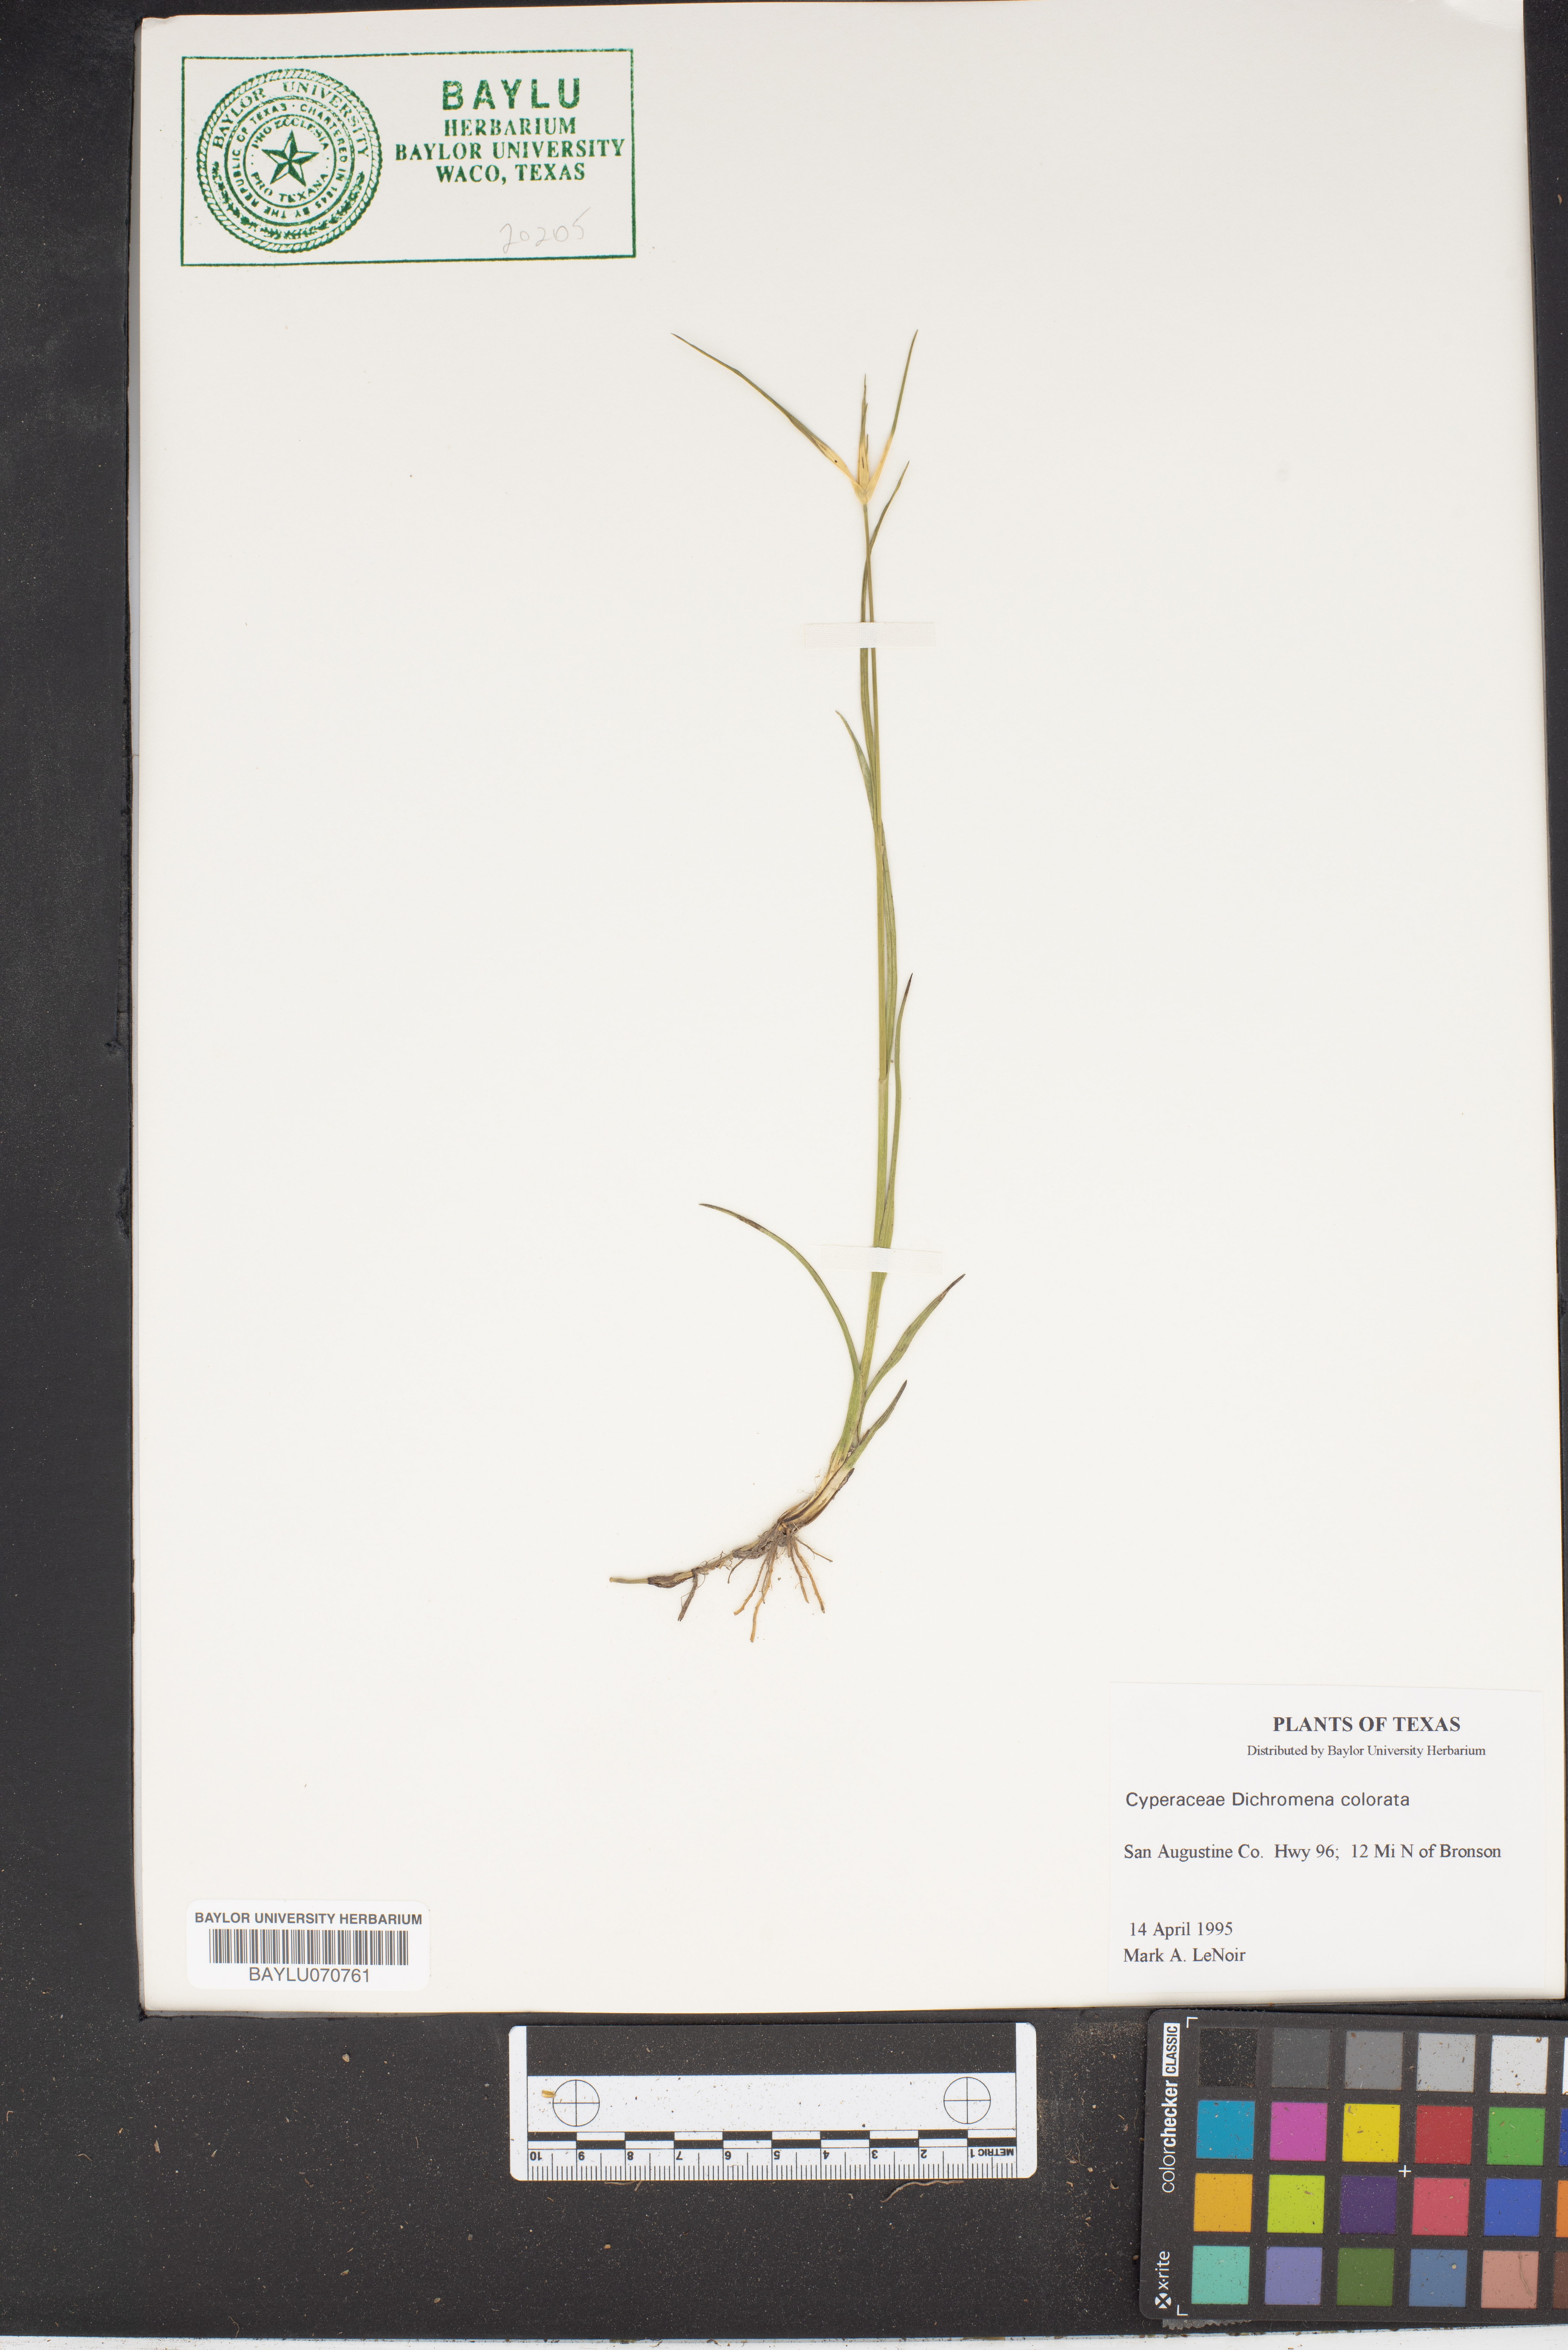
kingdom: Plantae
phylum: Tracheophyta
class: Liliopsida
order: Poales
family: Cyperaceae
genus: Rhynchospora
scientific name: Rhynchospora colorata
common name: Star sedge
